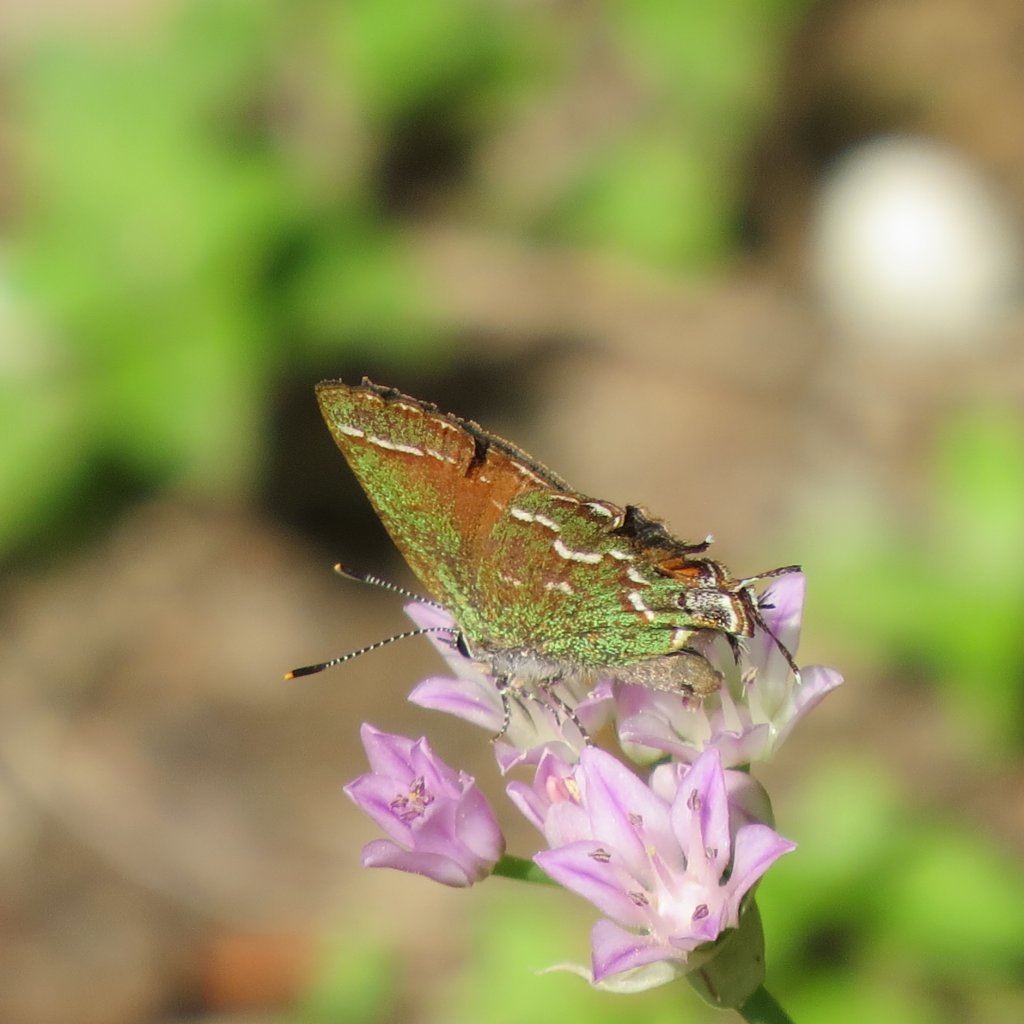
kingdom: Animalia
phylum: Arthropoda
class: Insecta
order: Lepidoptera
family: Lycaenidae
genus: Mitoura
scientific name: Mitoura gryneus
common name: Juniper Hairstreak
